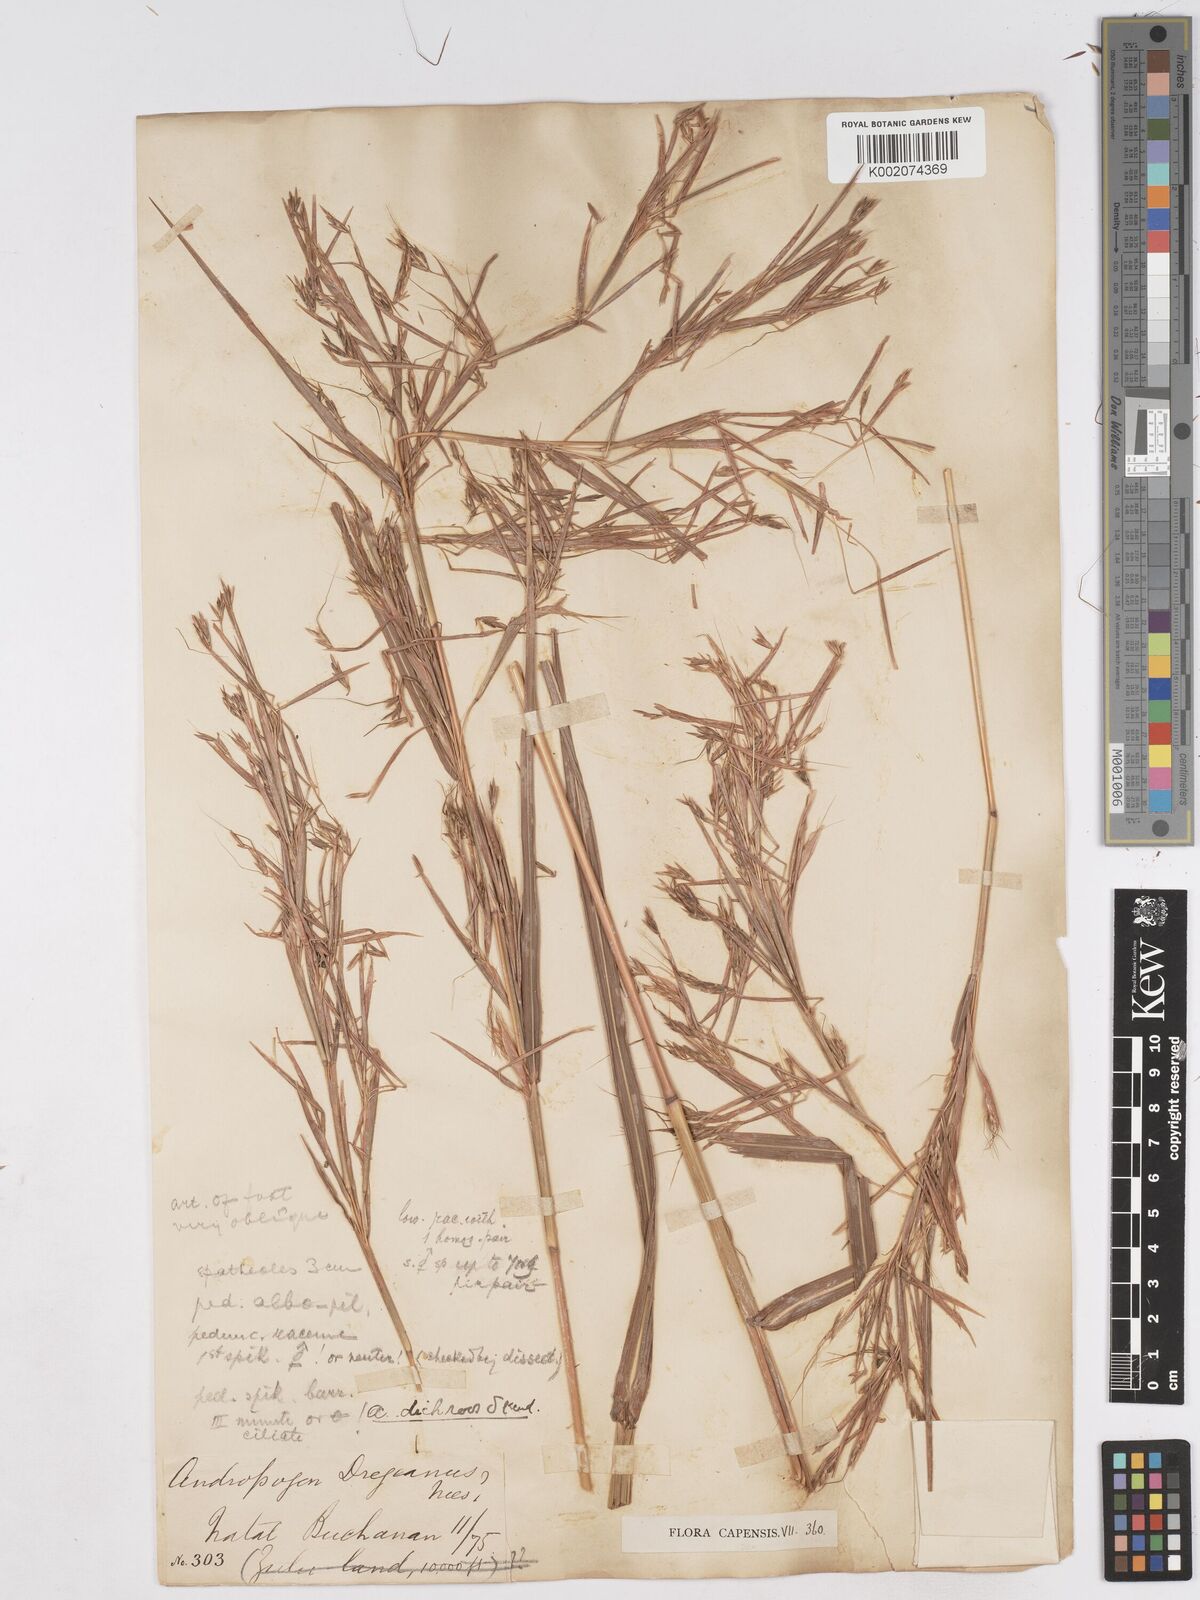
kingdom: Plantae
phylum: Tracheophyta
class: Liliopsida
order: Poales
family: Poaceae
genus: Hyparrhenia
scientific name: Hyparrhenia dichroa
